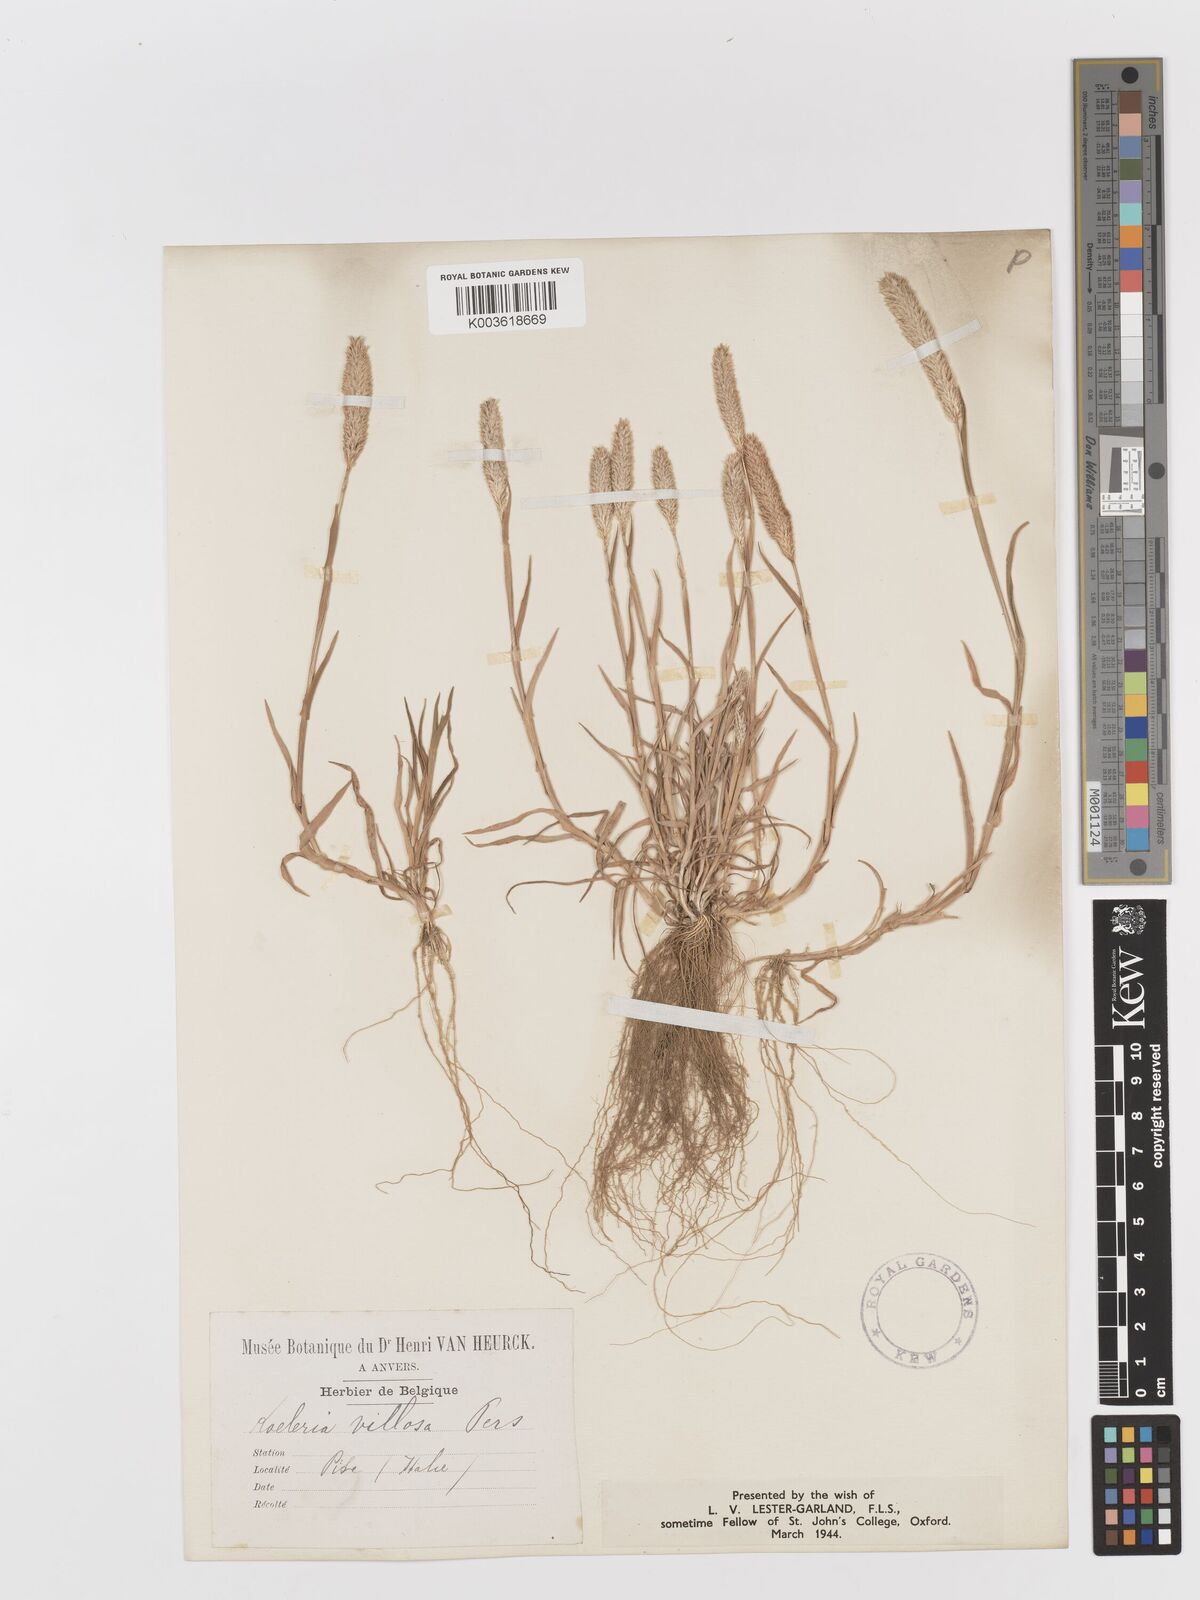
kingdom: Plantae
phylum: Tracheophyta
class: Liliopsida
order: Poales
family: Poaceae
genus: Rostraria
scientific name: Rostraria
